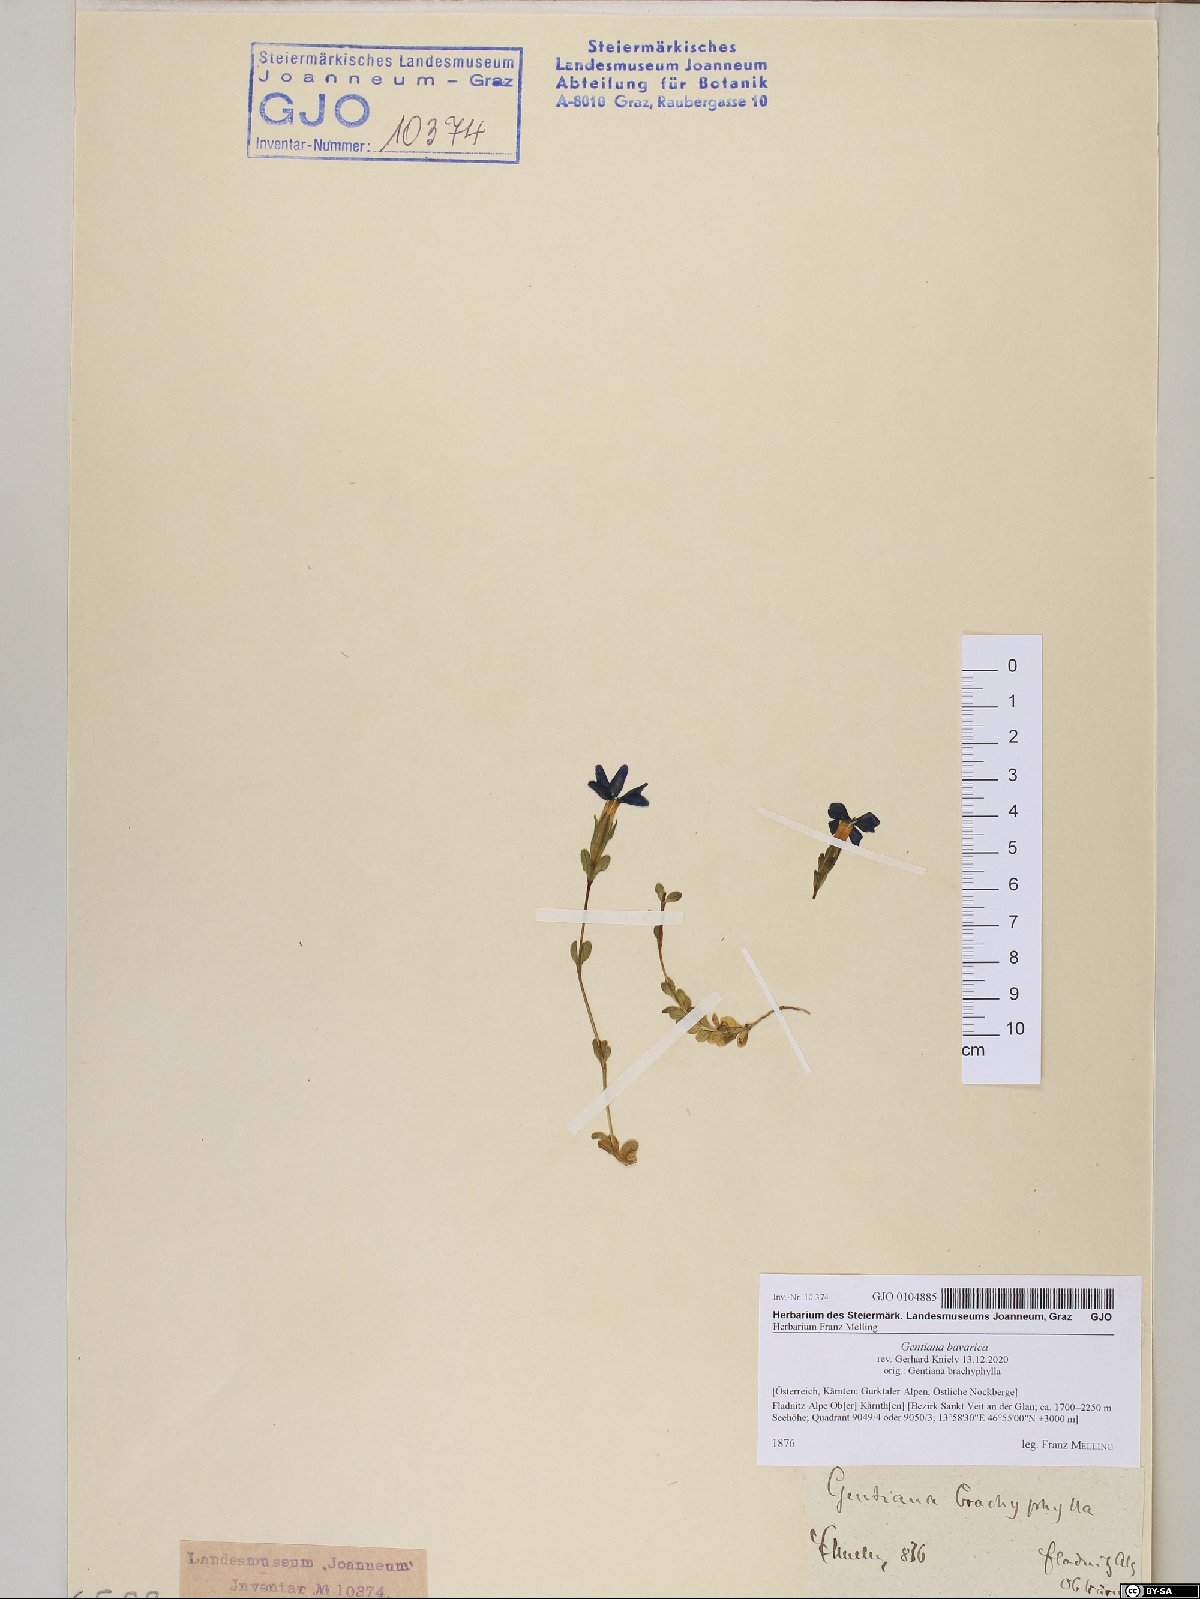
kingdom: Plantae
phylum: Tracheophyta
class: Magnoliopsida
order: Gentianales
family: Gentianaceae
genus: Gentiana
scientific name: Gentiana bavarica
